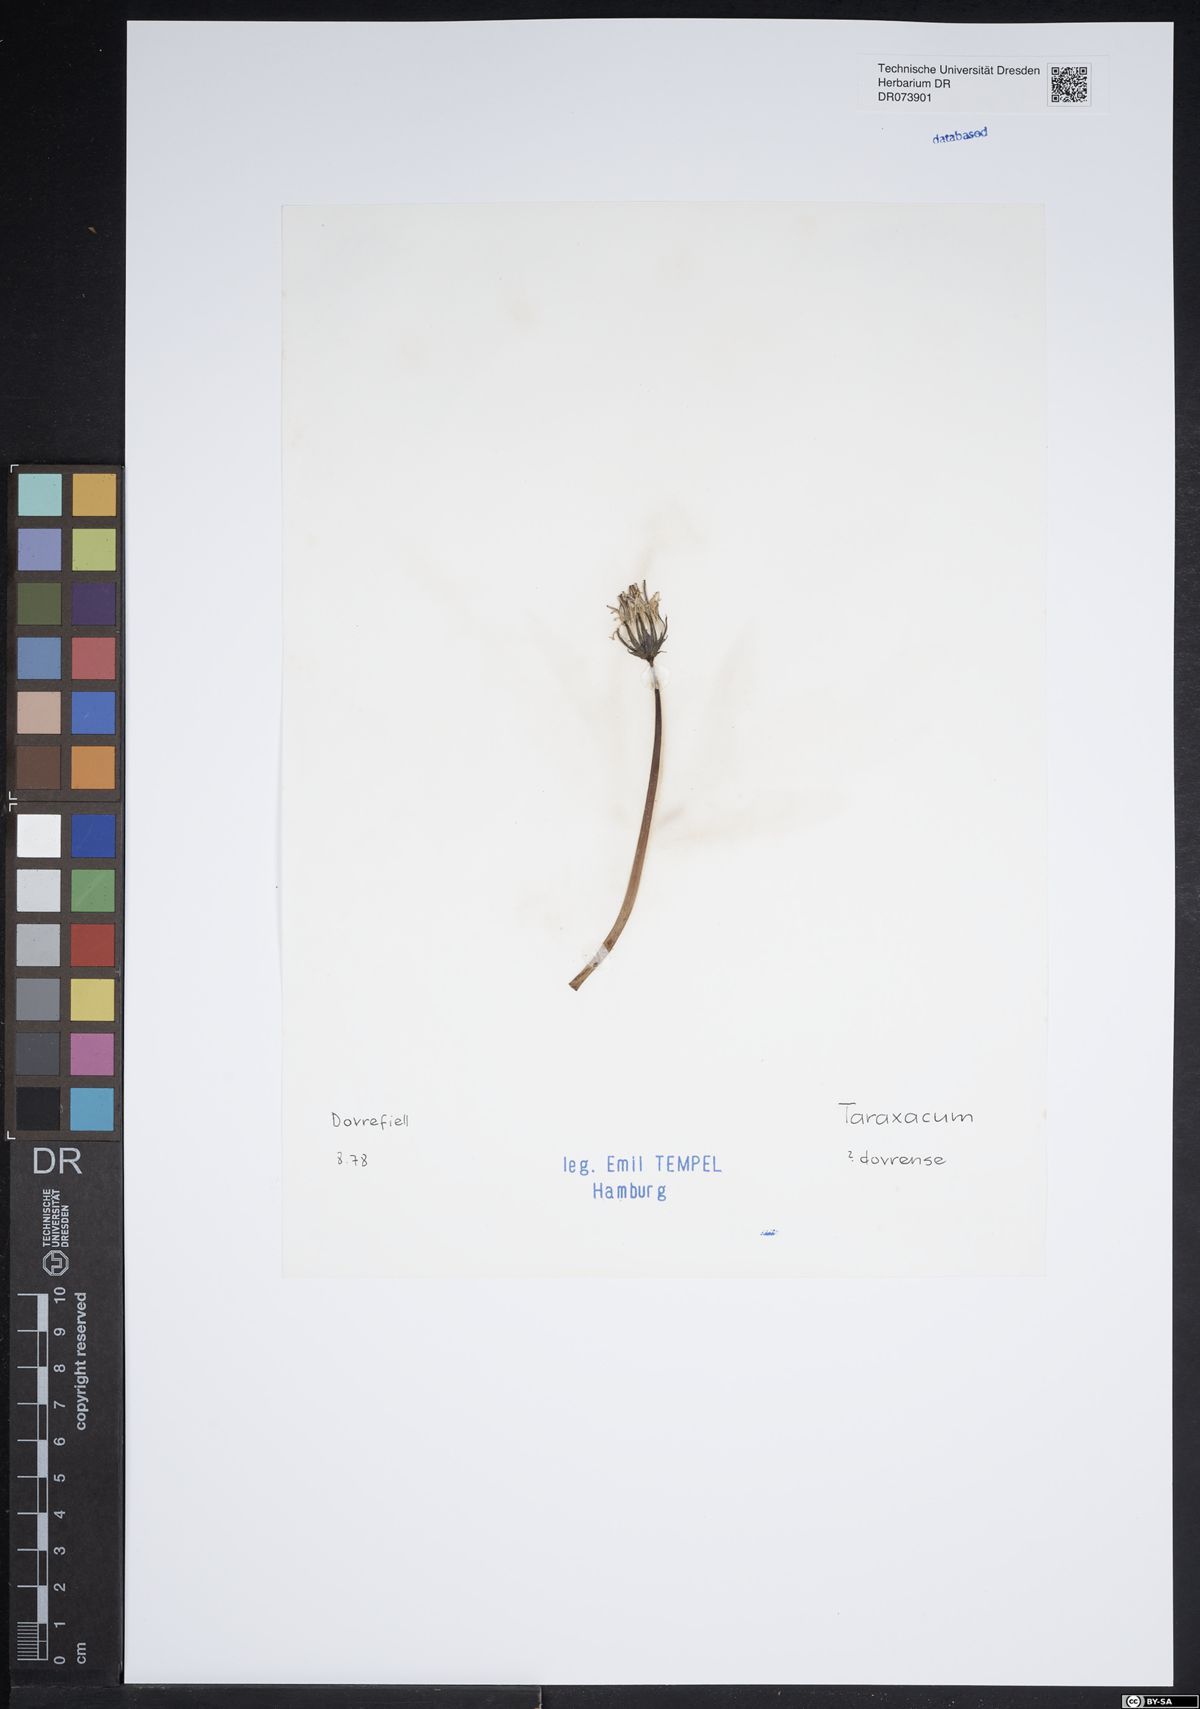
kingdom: Plantae
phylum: Tracheophyta
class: Magnoliopsida
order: Asterales
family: Asteraceae
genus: Taraxacum
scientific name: Taraxacum dovrense
